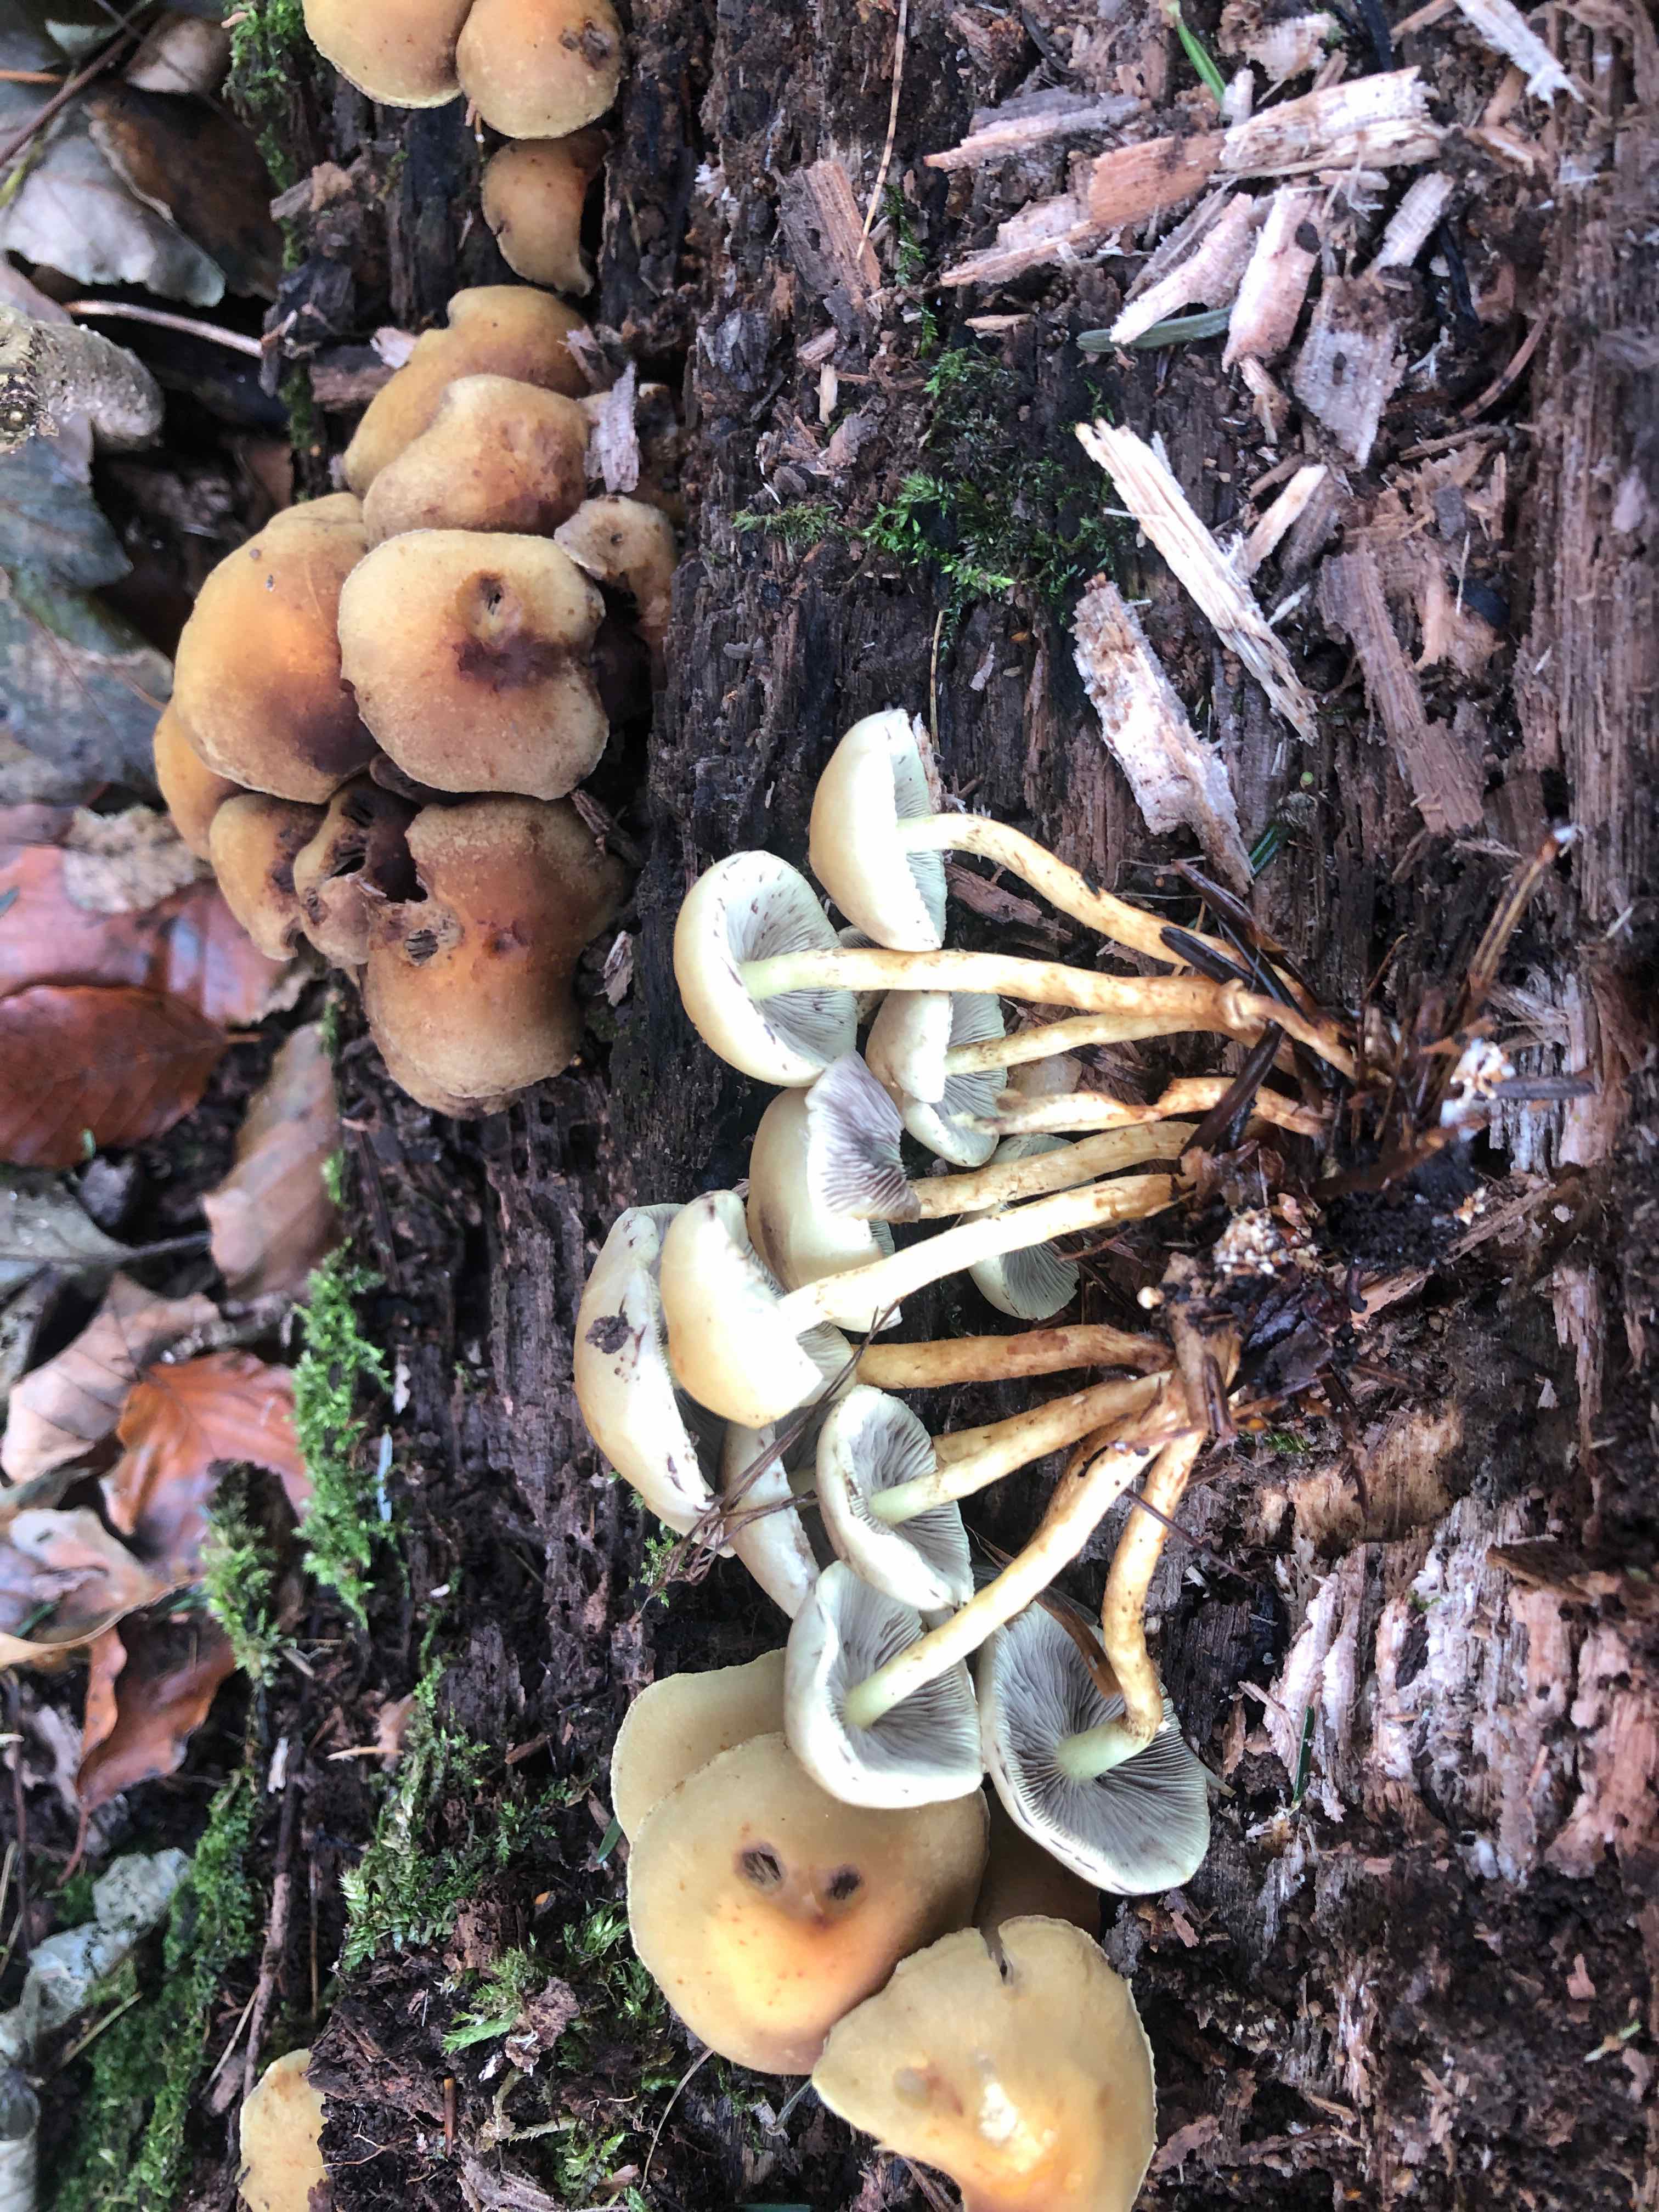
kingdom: Fungi
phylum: Basidiomycota
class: Agaricomycetes
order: Agaricales
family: Strophariaceae
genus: Hypholoma
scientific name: Hypholoma fasciculare
